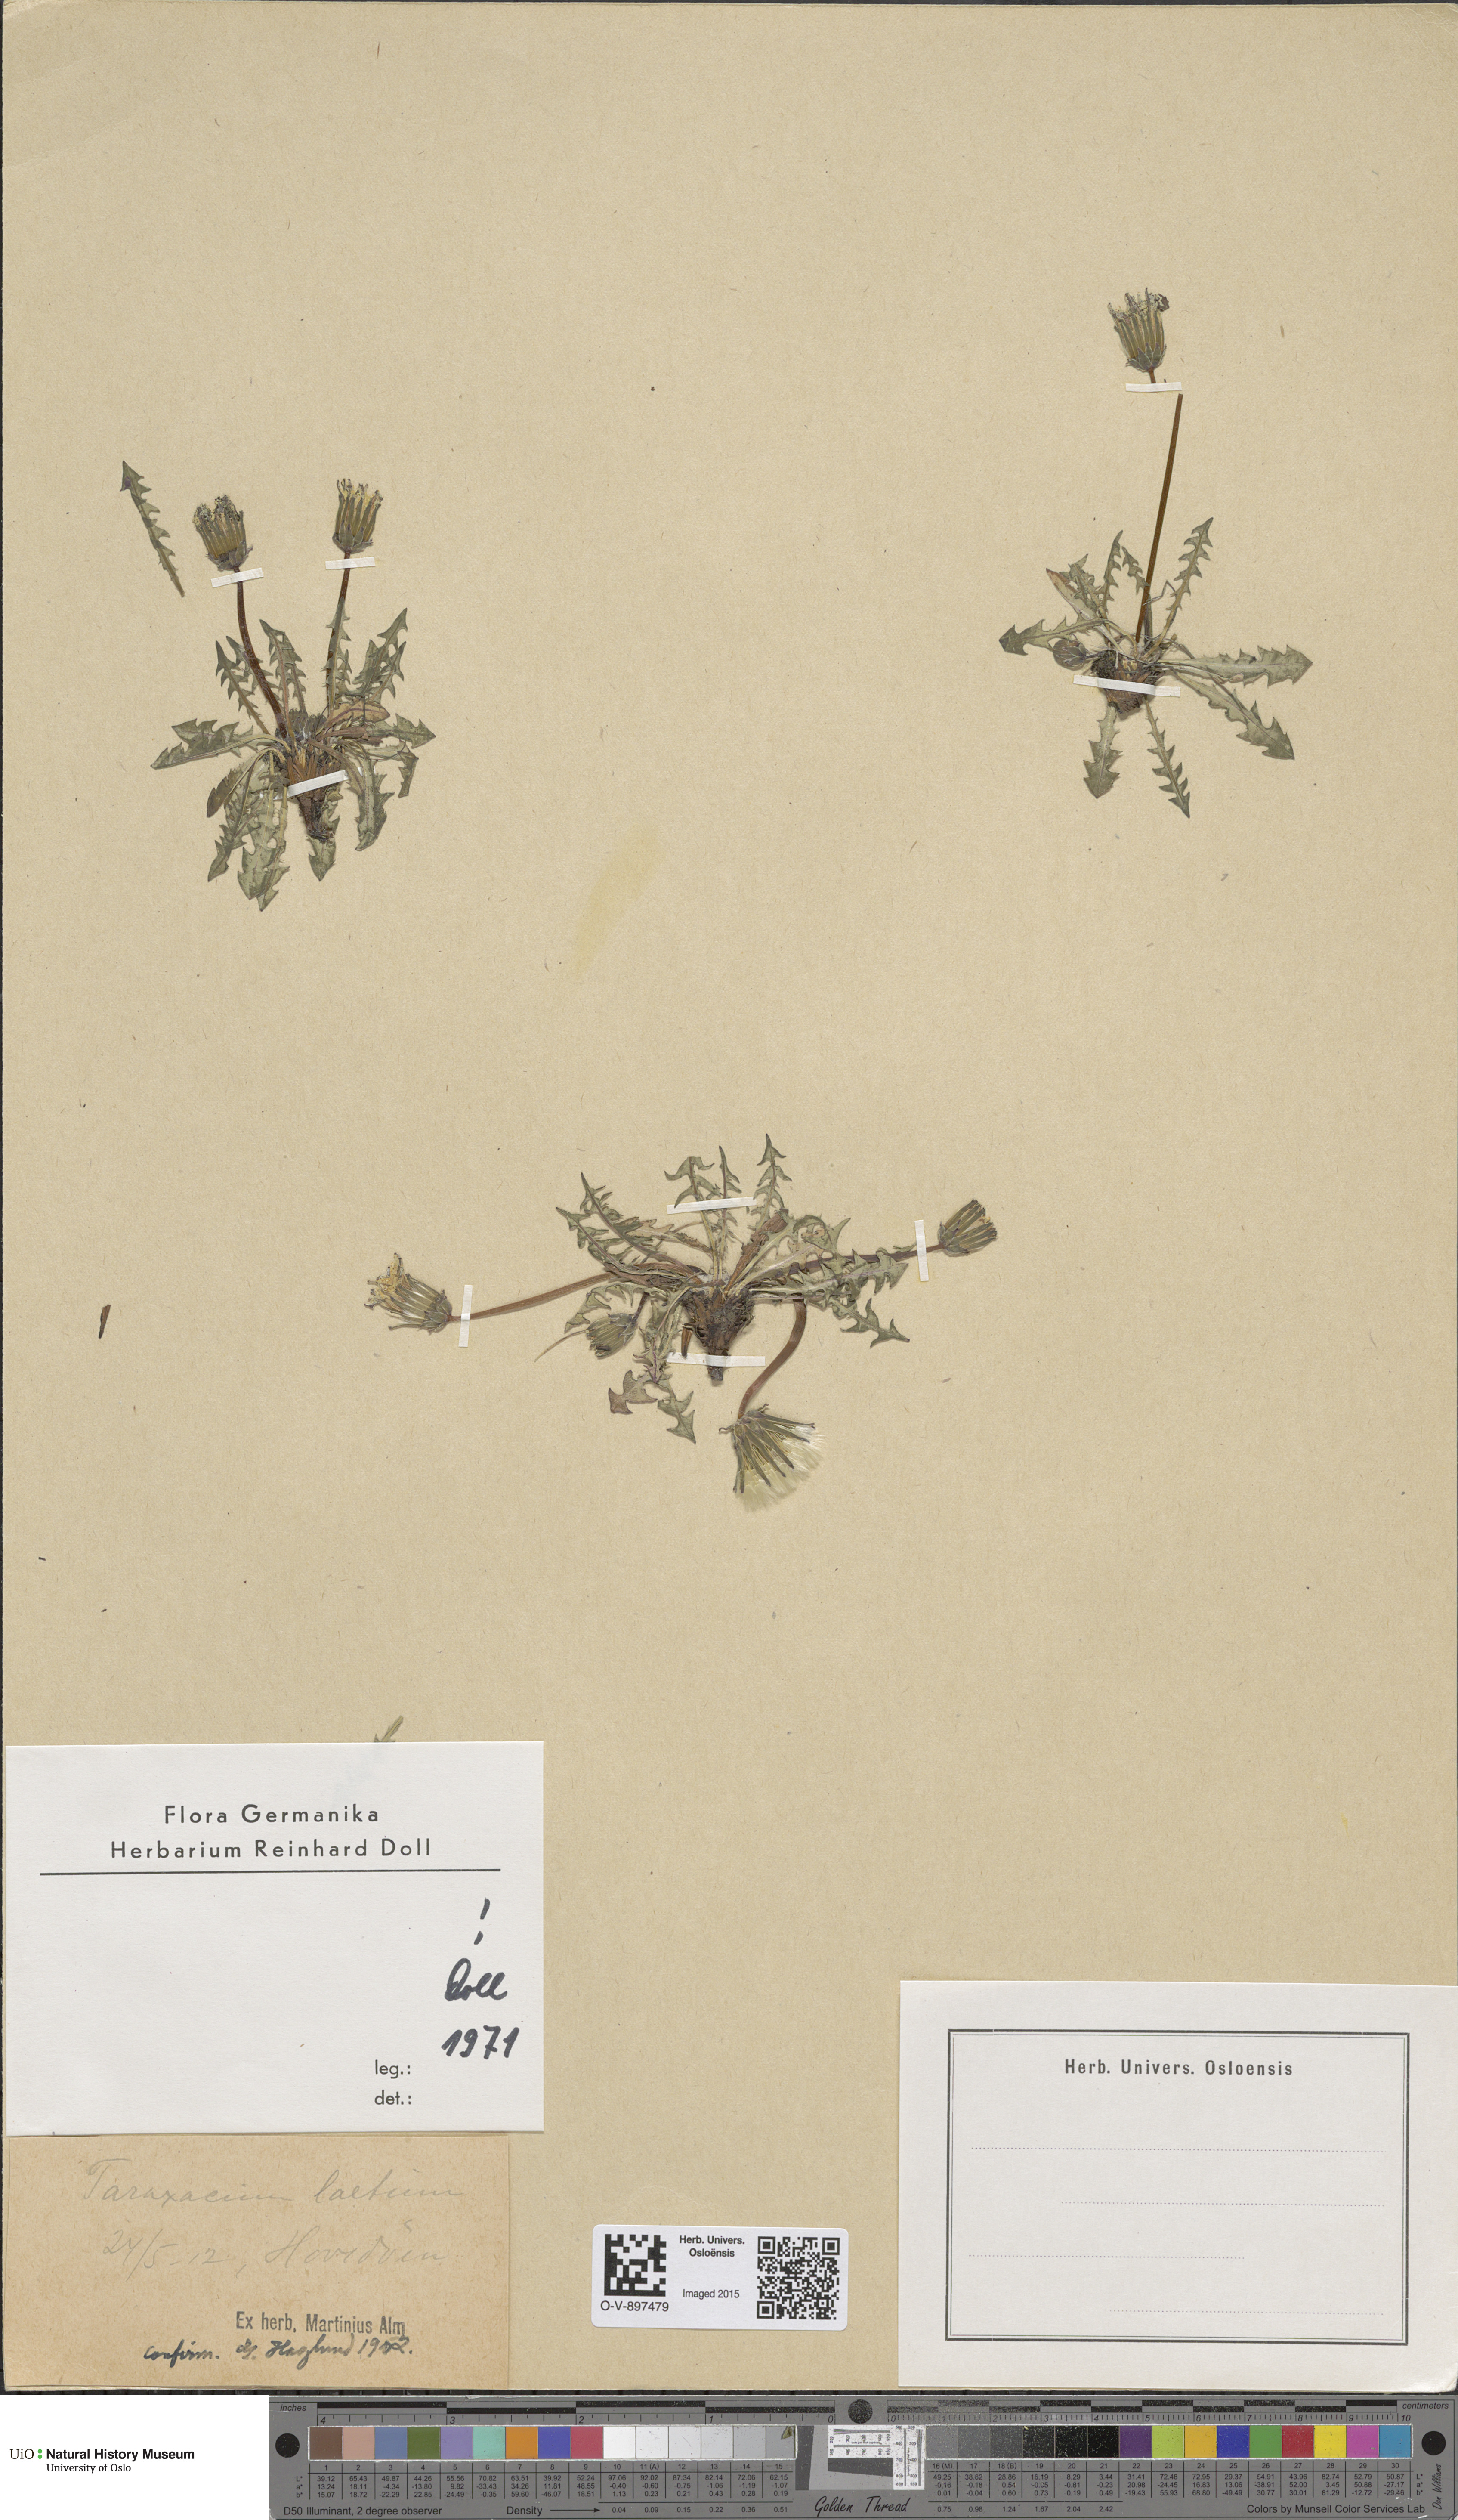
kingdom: Plantae
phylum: Tracheophyta
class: Magnoliopsida
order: Asterales
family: Asteraceae
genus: Taraxacum
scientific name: Taraxacum laetum
